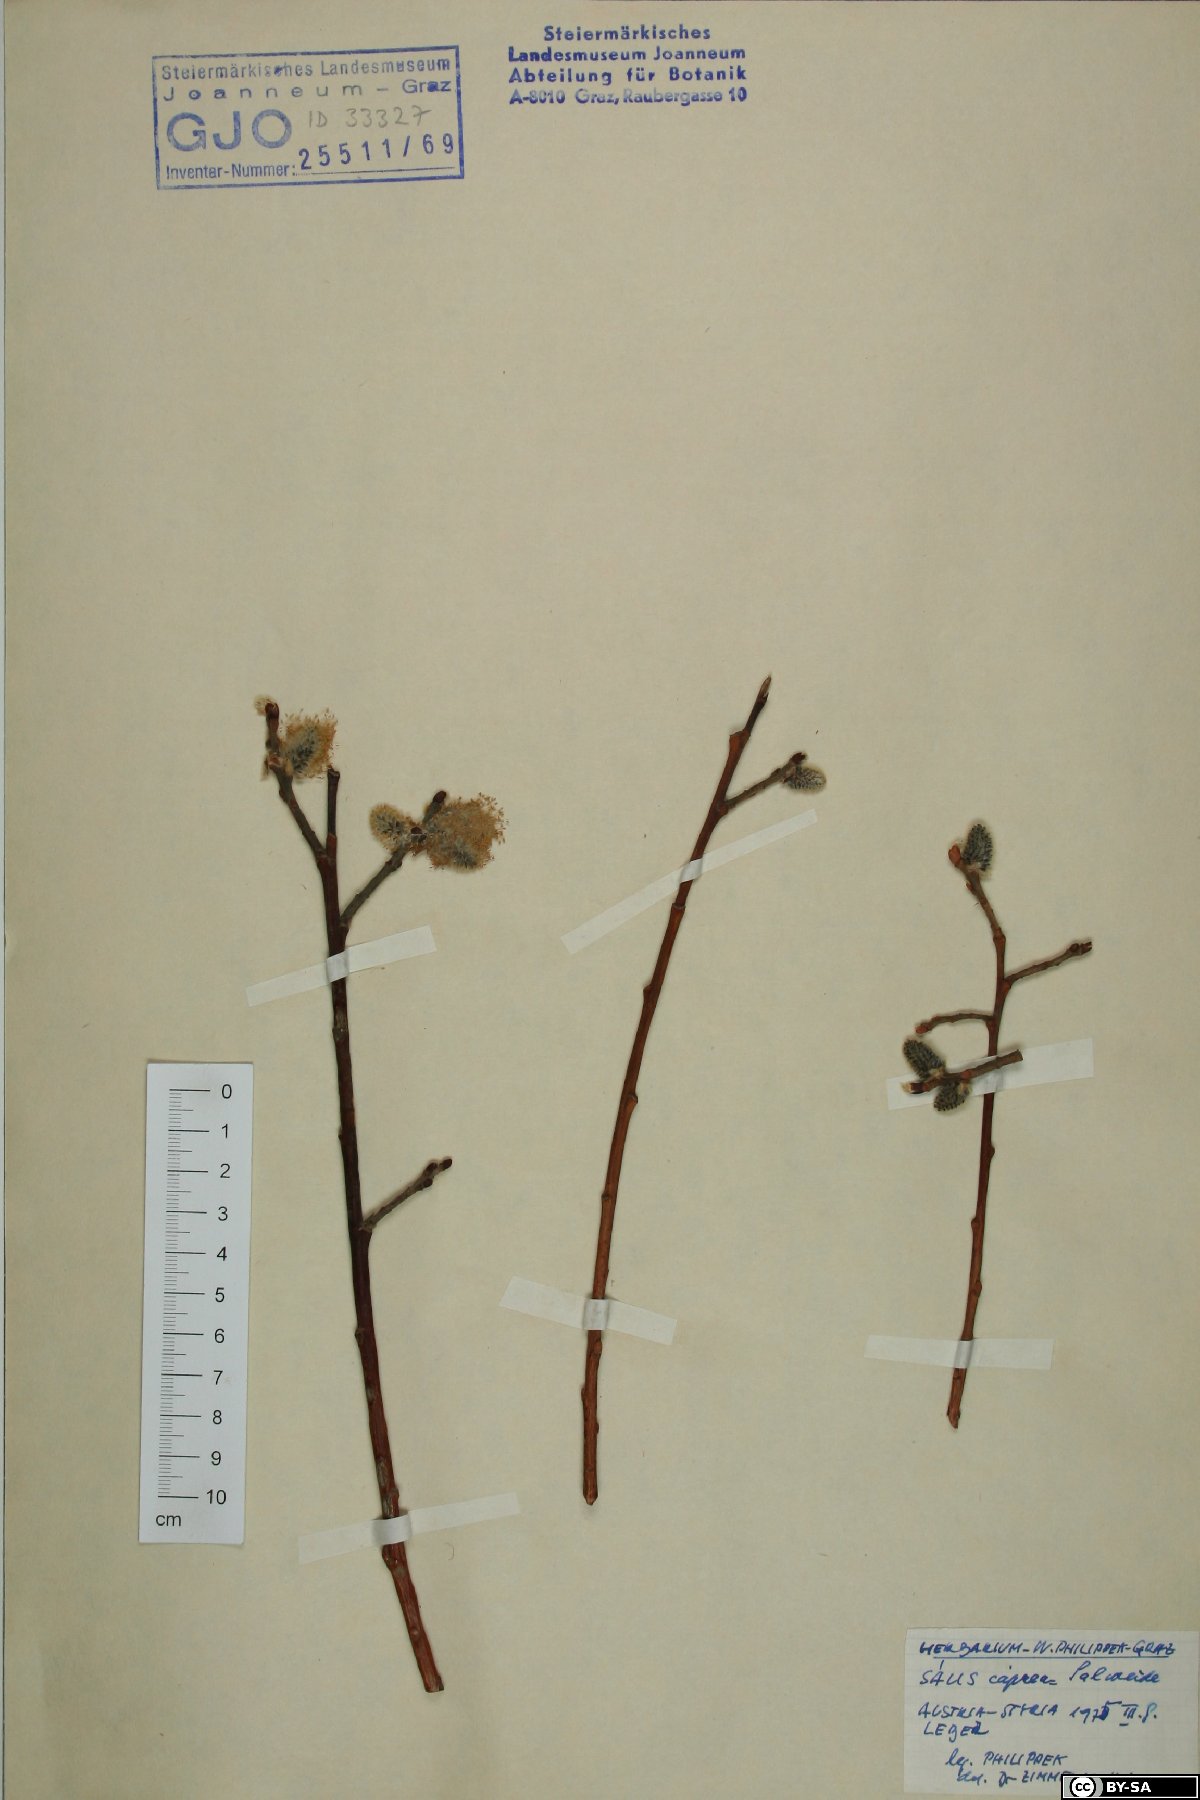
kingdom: Plantae
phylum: Tracheophyta
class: Magnoliopsida
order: Malpighiales
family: Salicaceae
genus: Salix
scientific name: Salix caprea
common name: Goat willow
